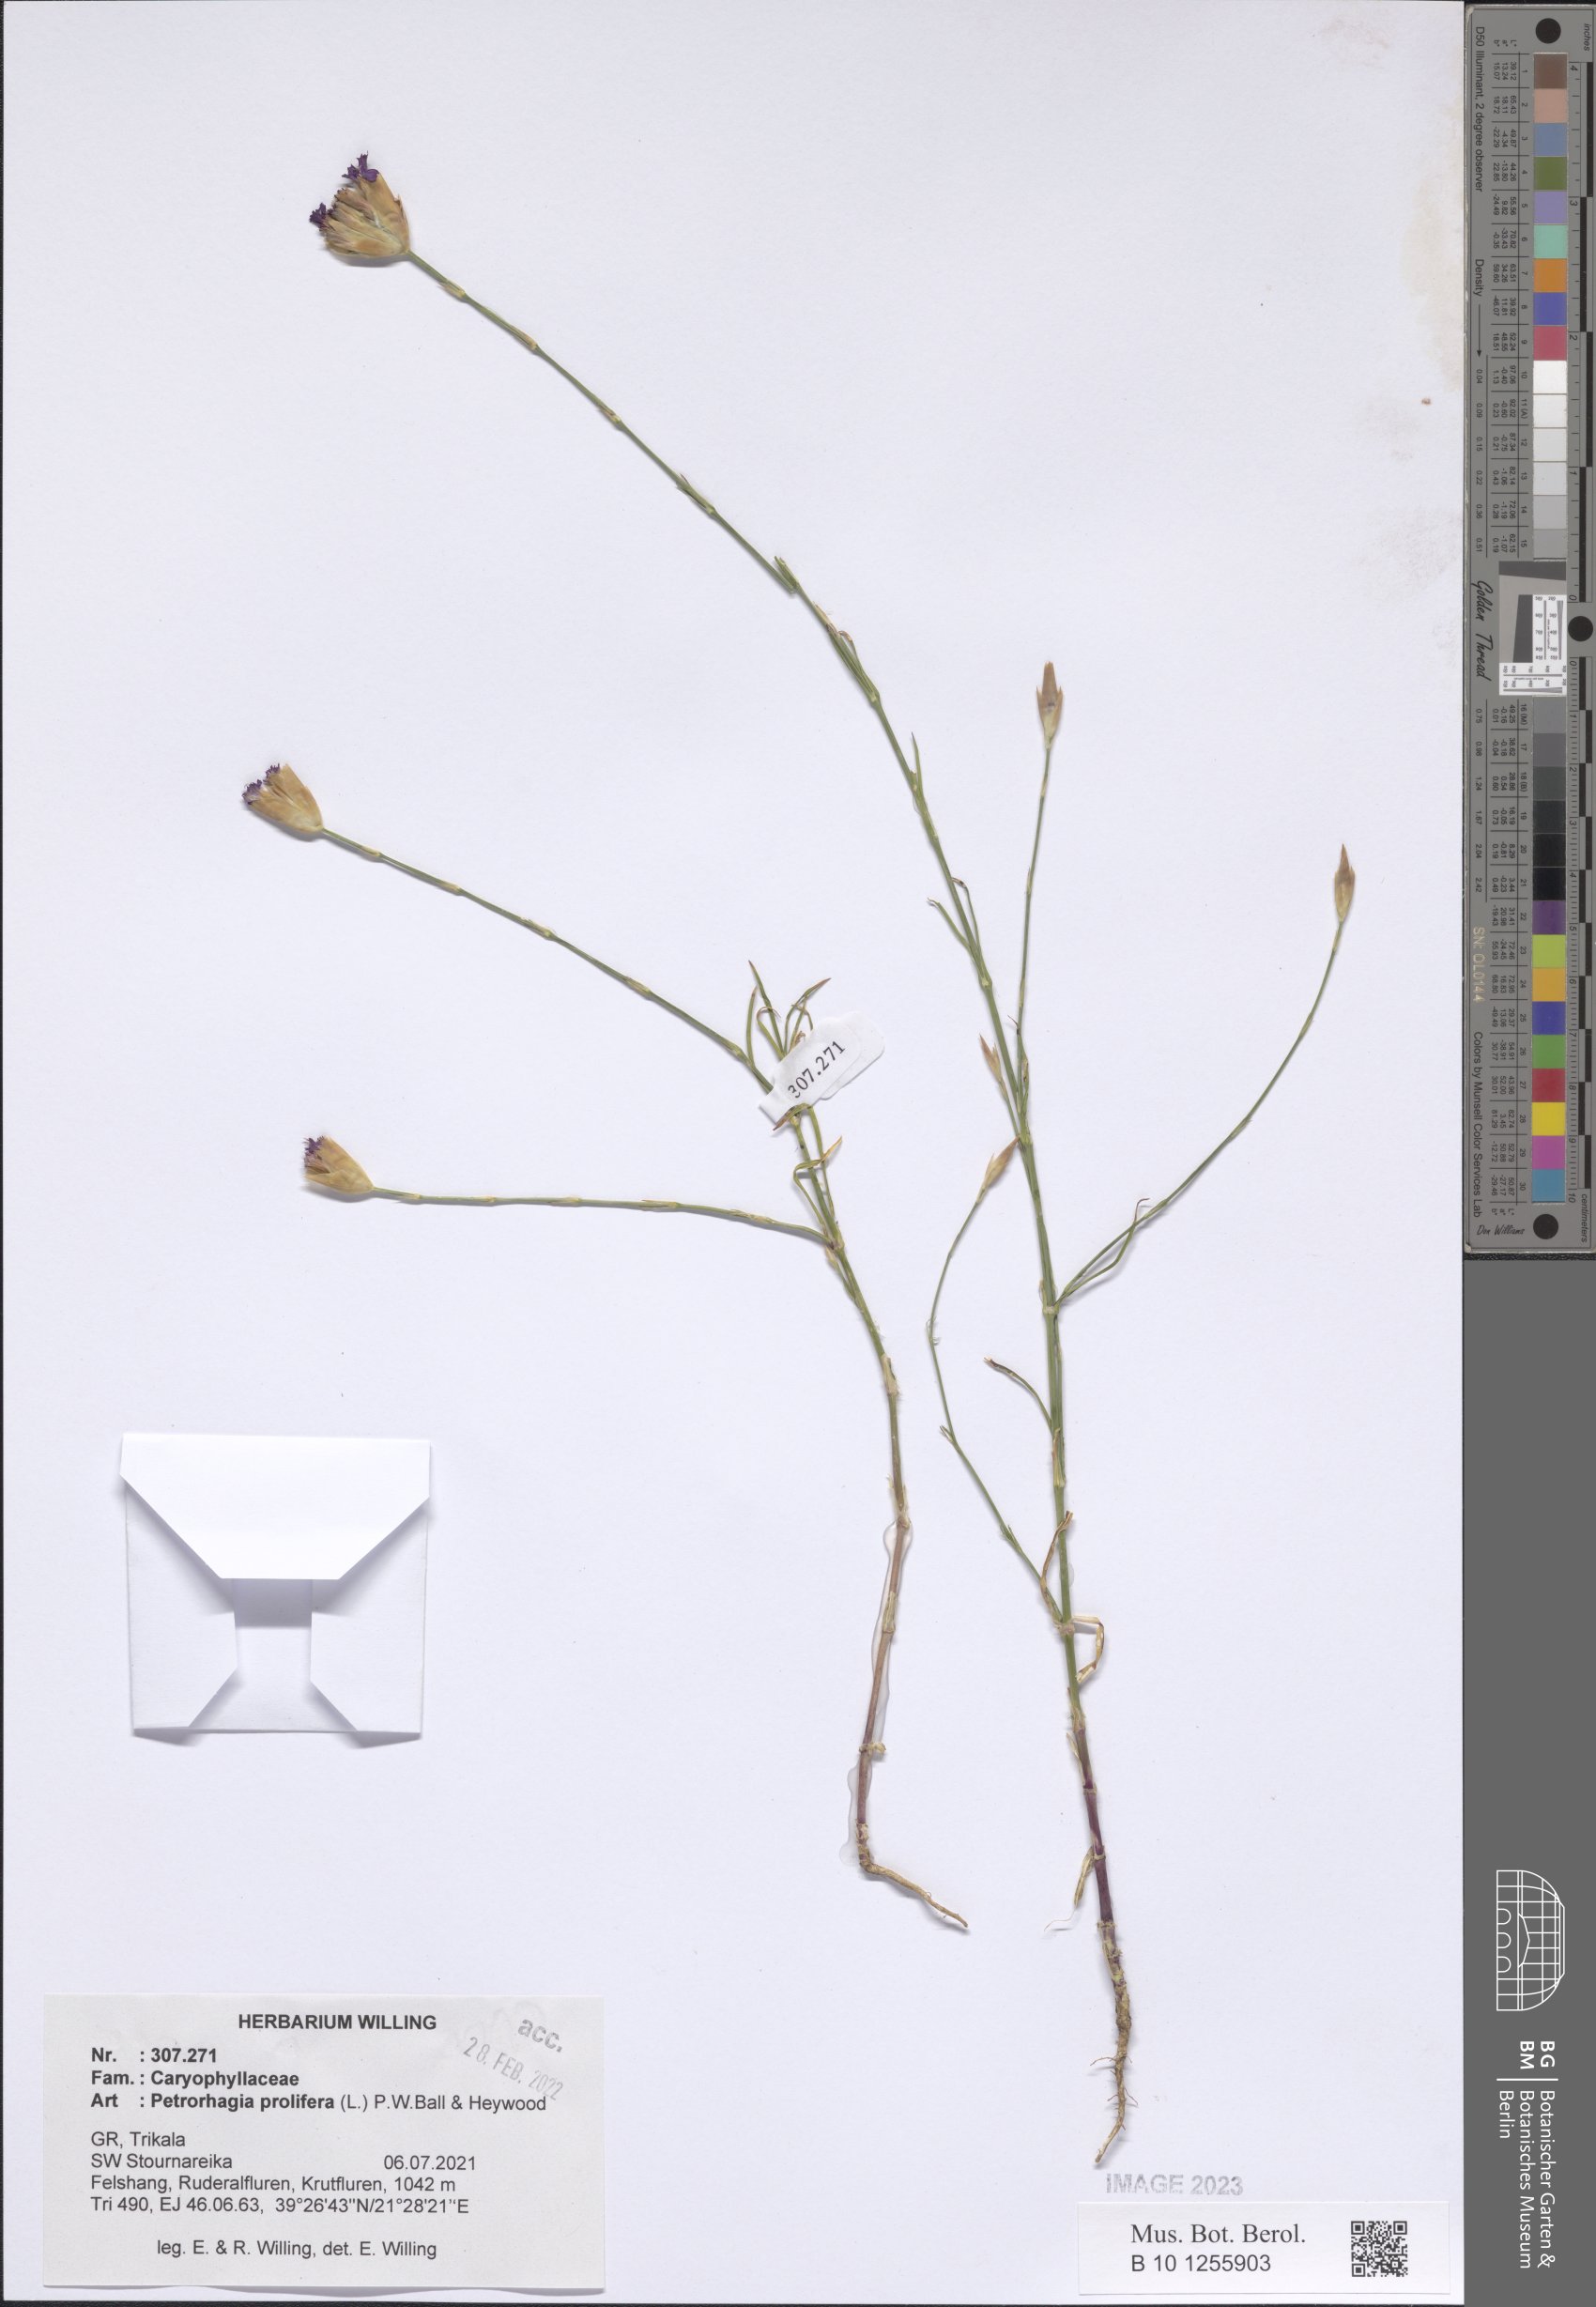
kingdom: Plantae
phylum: Tracheophyta
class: Magnoliopsida
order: Caryophyllales
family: Caryophyllaceae
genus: Petrorhagia
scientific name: Petrorhagia prolifera
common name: Proliferous pink
